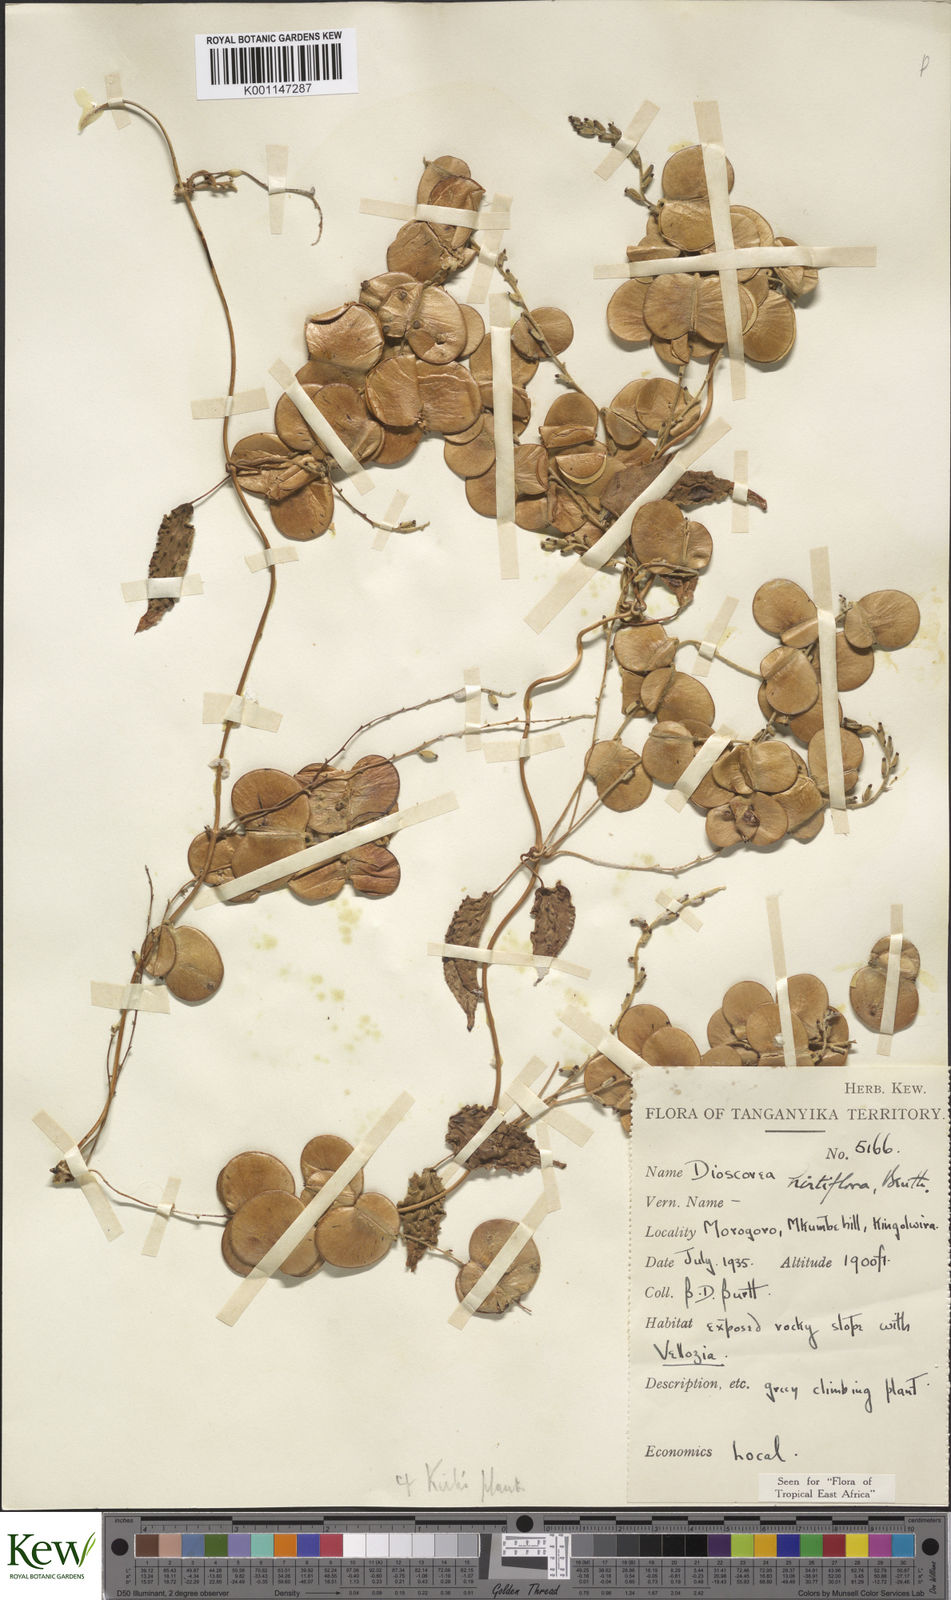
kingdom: Plantae
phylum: Tracheophyta
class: Liliopsida
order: Dioscoreales
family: Dioscoreaceae
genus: Dioscorea
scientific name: Dioscorea hirtiflora
